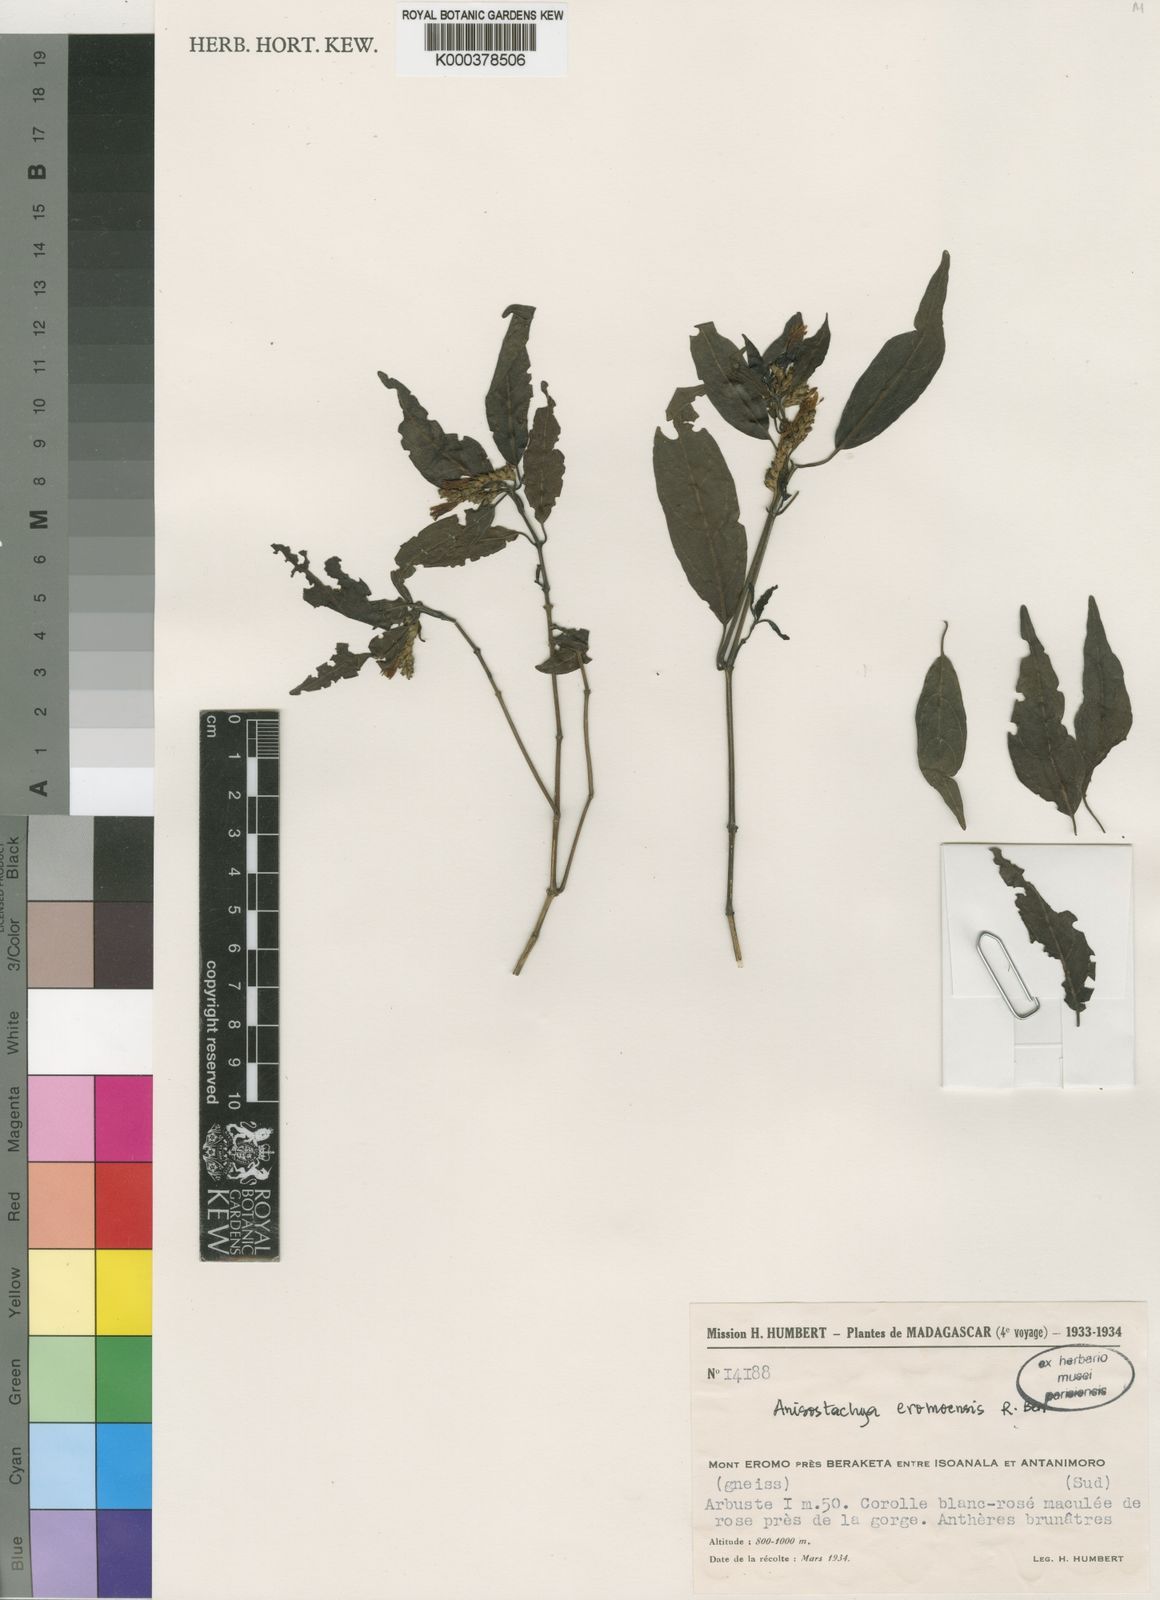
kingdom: Plantae
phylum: Tracheophyta
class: Magnoliopsida
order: Lamiales
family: Acanthaceae
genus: Justicia
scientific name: Justicia
